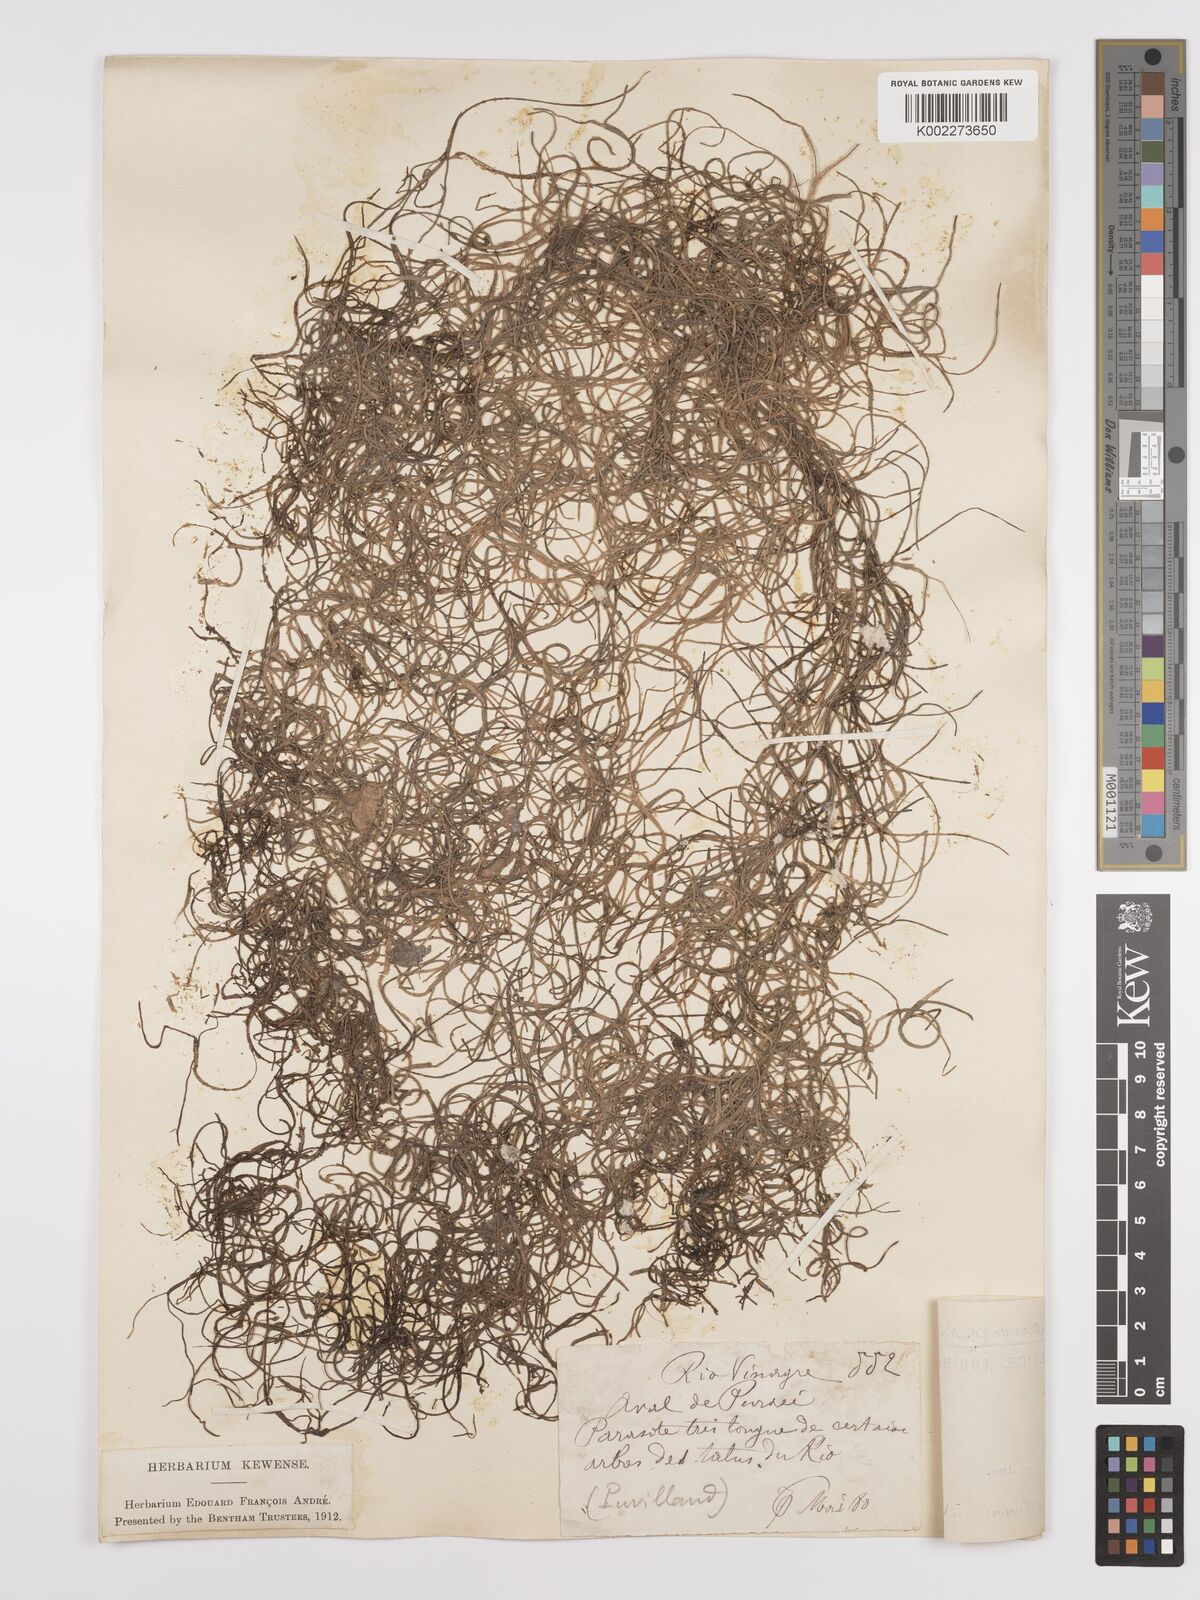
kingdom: Plantae
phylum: Tracheophyta
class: Liliopsida
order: Poales
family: Bromeliaceae
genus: Tillandsia
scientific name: Tillandsia usneoides
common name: Spanish moss
